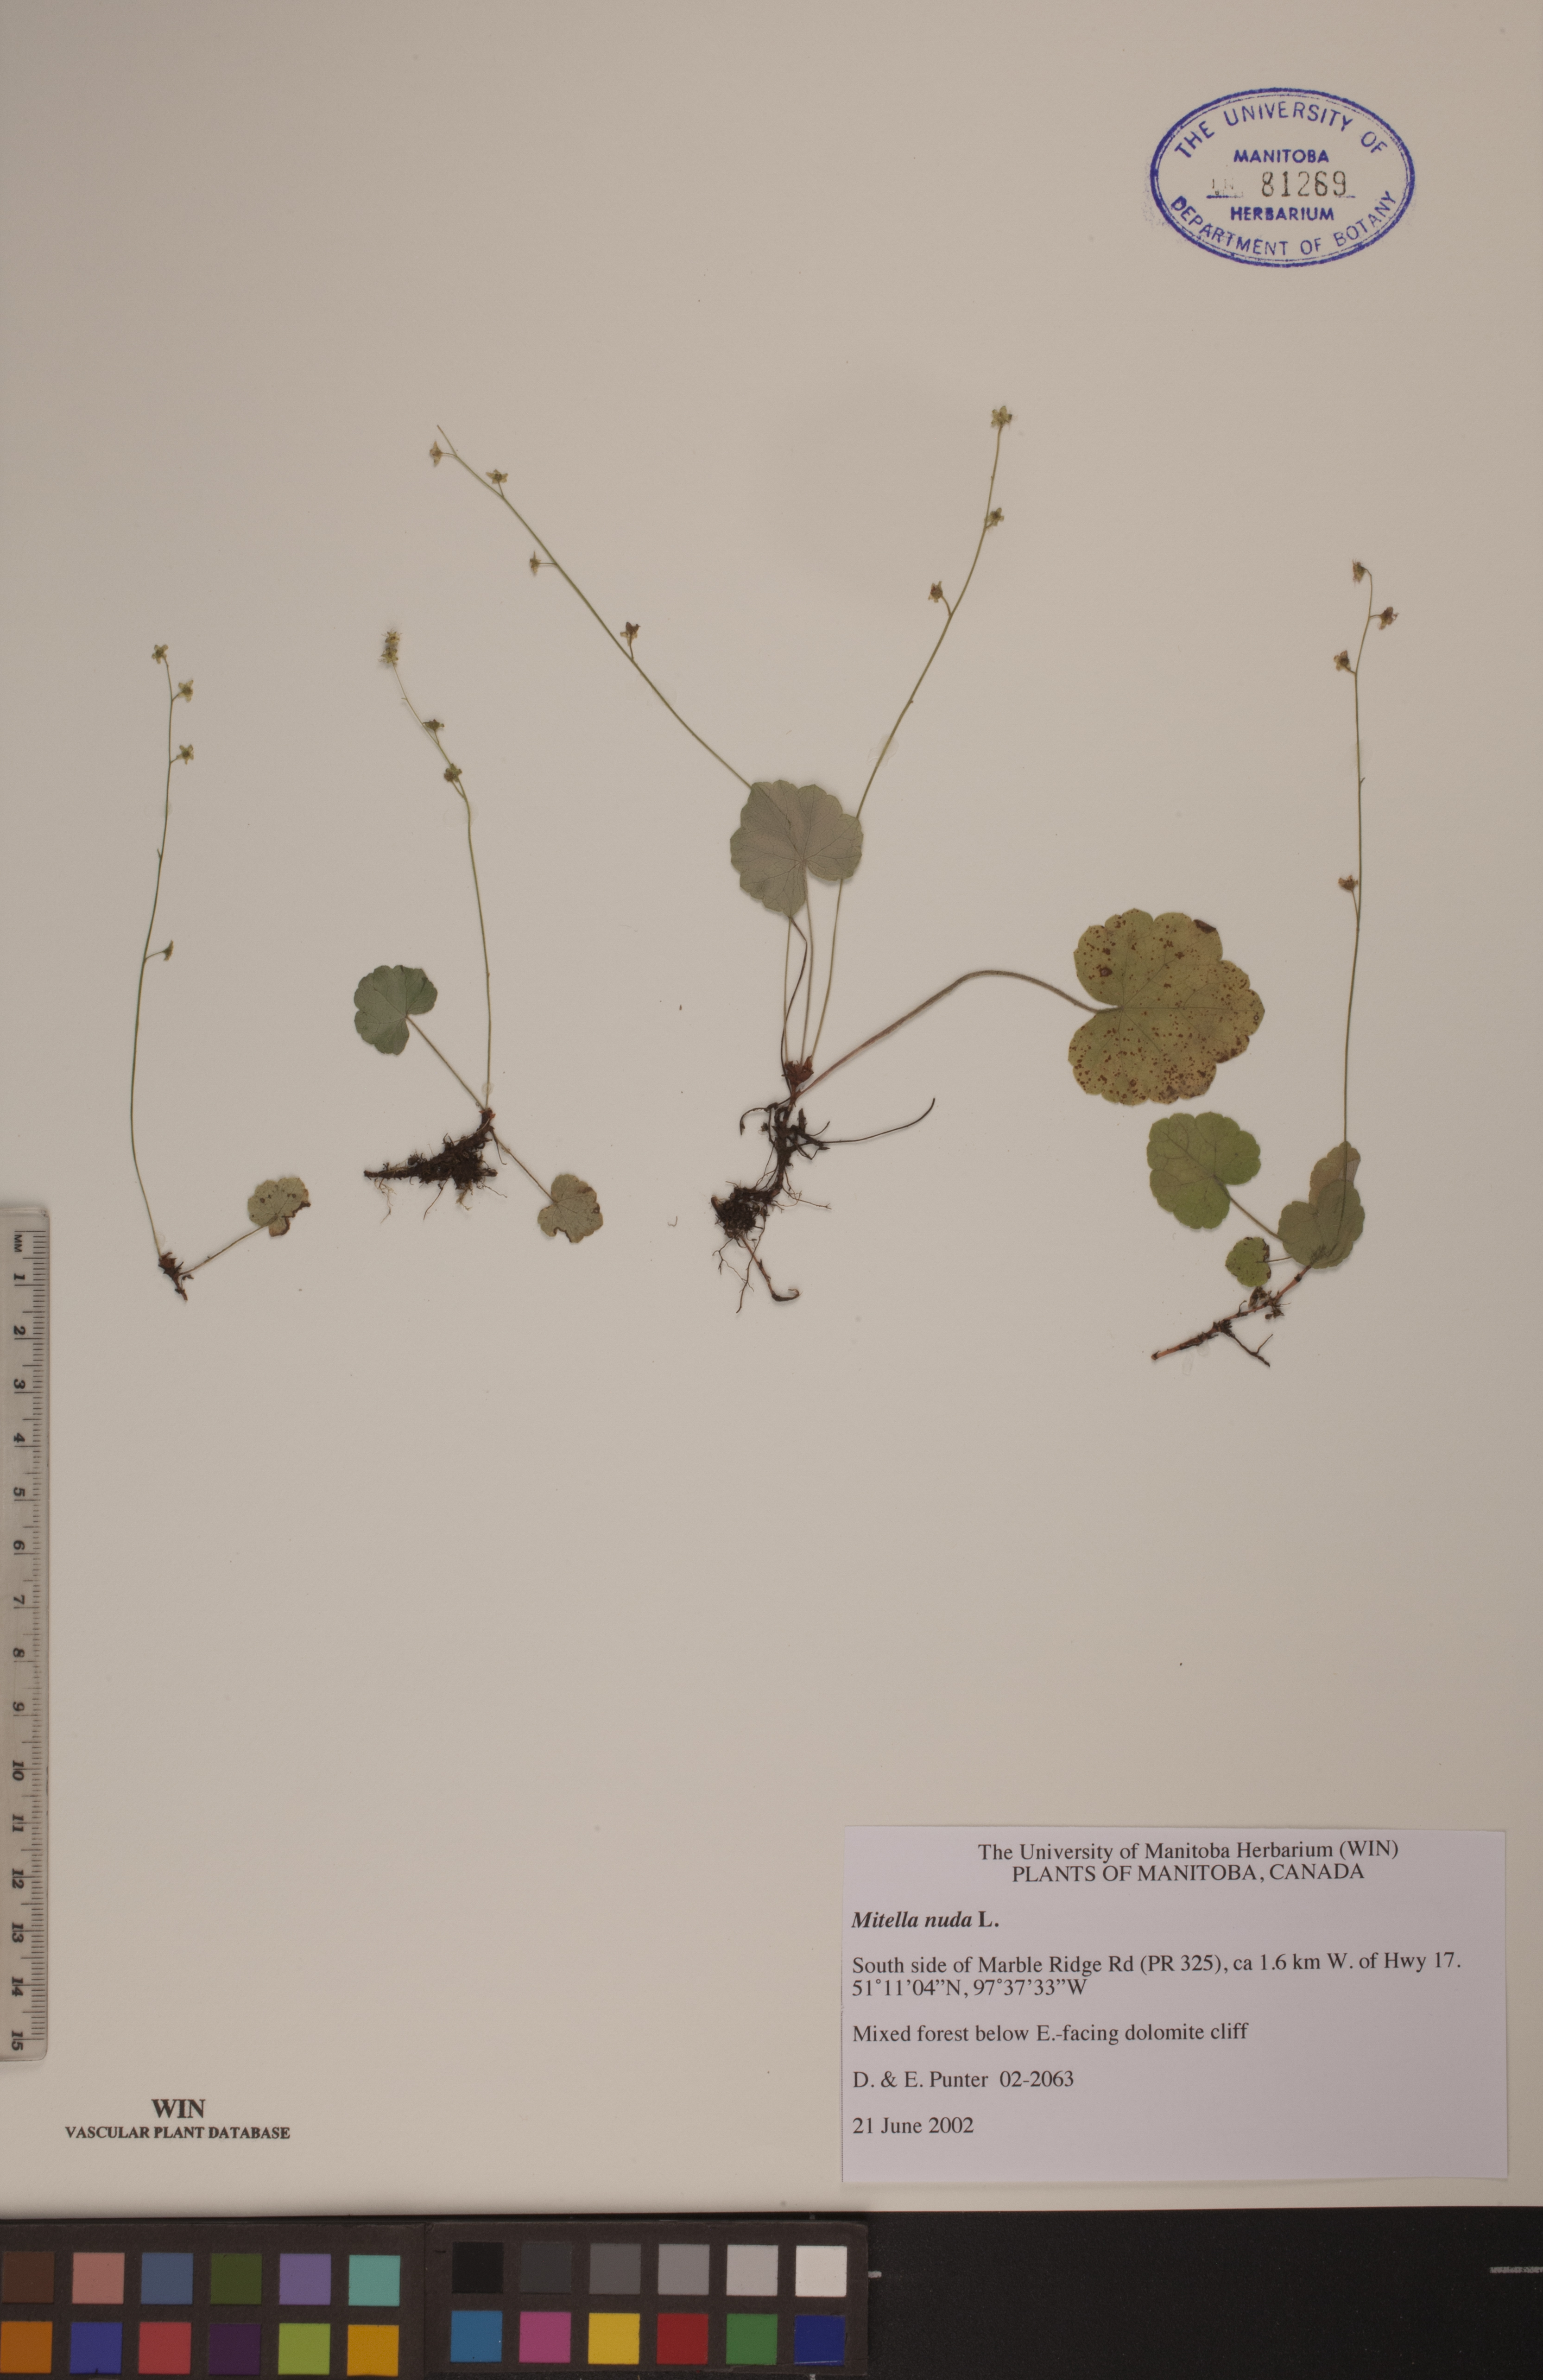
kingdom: Plantae
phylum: Tracheophyta
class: Magnoliopsida
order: Saxifragales
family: Saxifragaceae
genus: Mitella
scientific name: Mitella nuda
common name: Bare-stemmed bishop's-cap
